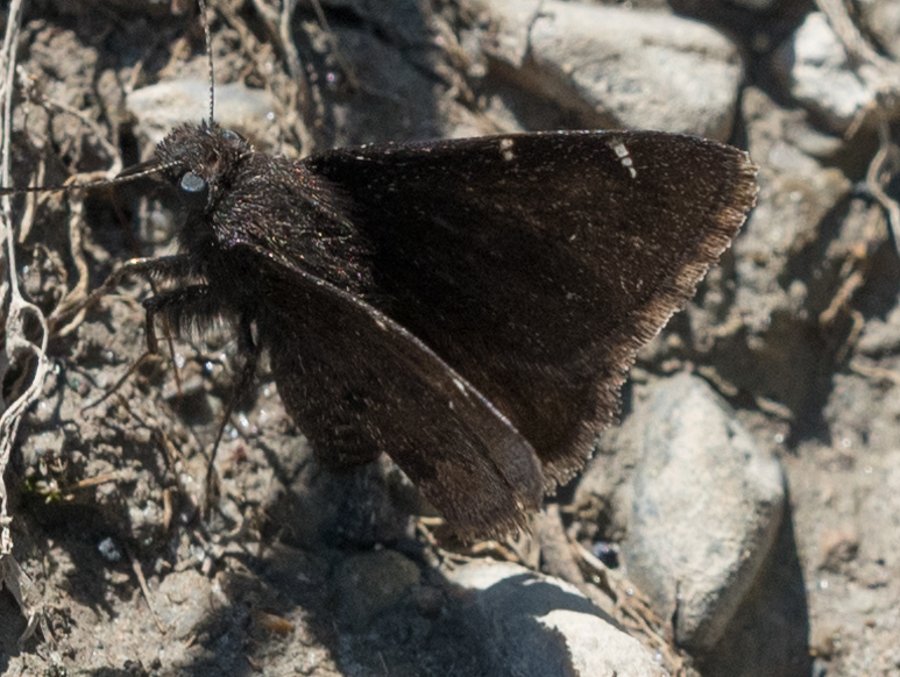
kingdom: Animalia
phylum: Arthropoda
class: Insecta
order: Lepidoptera
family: Hesperiidae
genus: Autochton
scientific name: Autochton
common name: Northern Cloudywing
